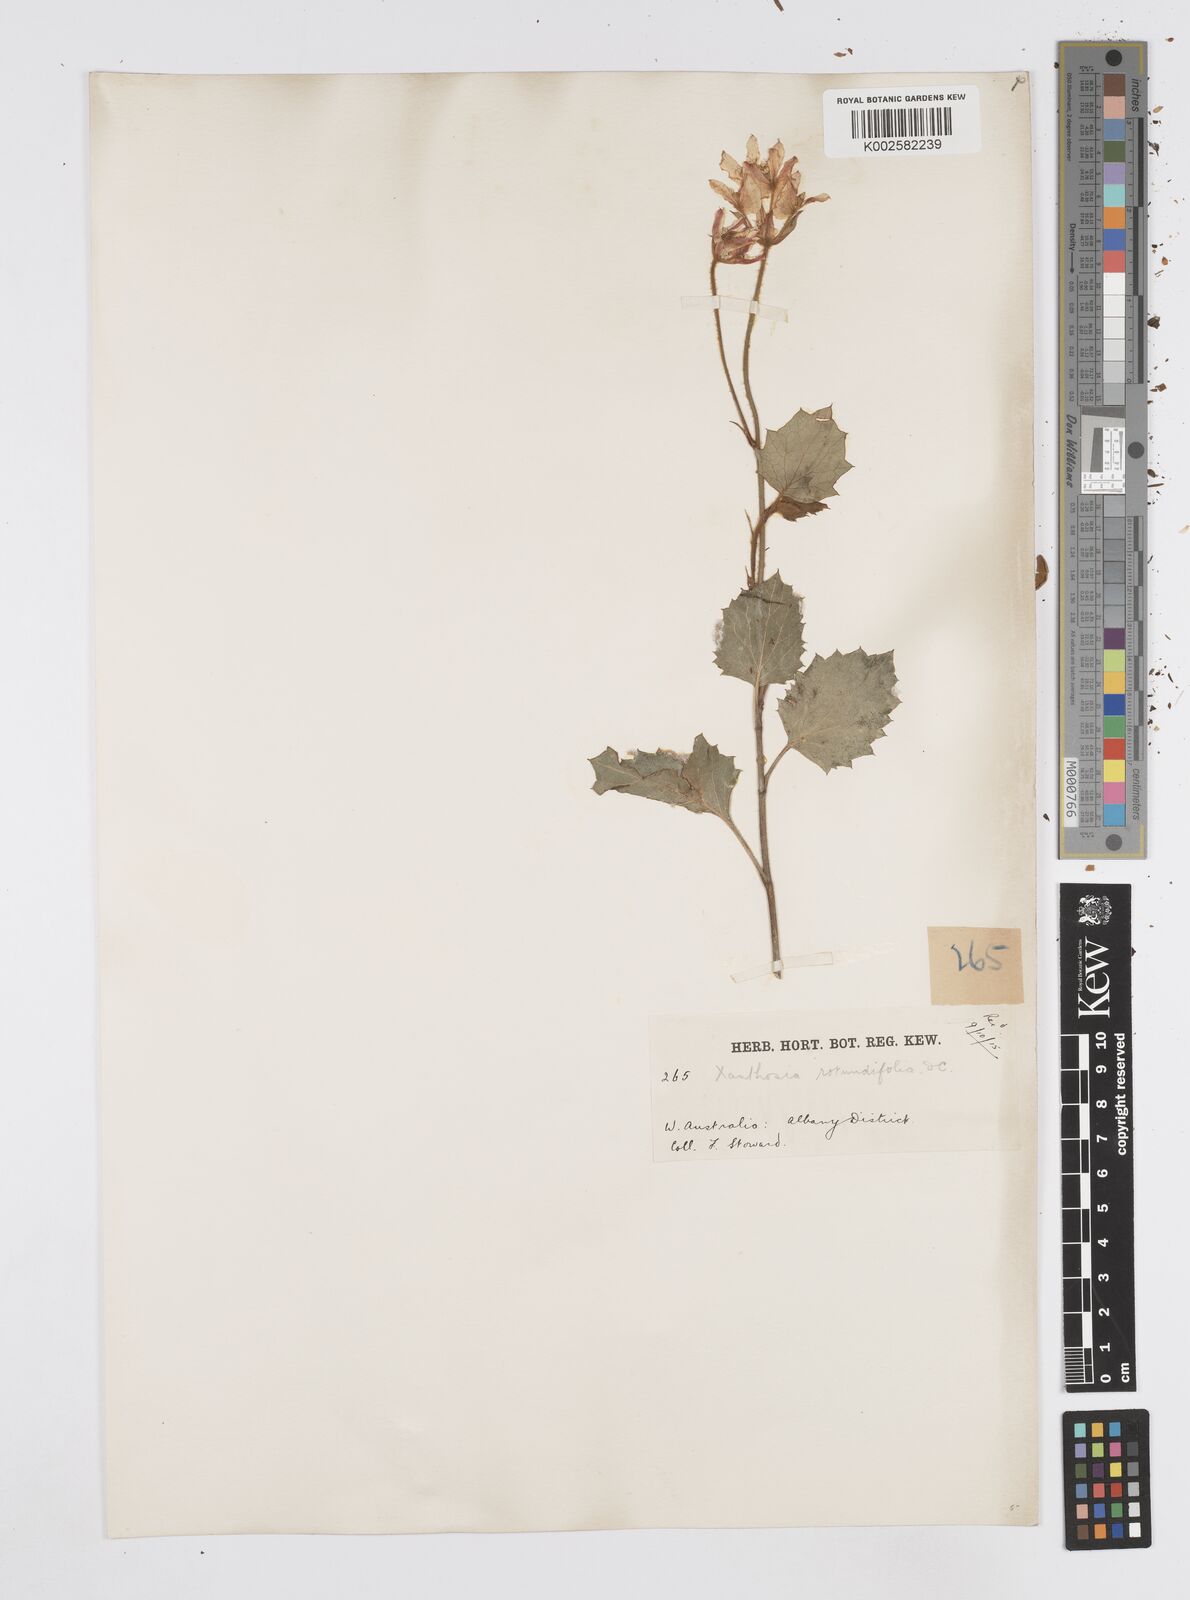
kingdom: Plantae
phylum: Tracheophyta
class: Magnoliopsida
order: Apiales
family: Apiaceae
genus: Xanthosia
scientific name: Xanthosia rotundifolia
